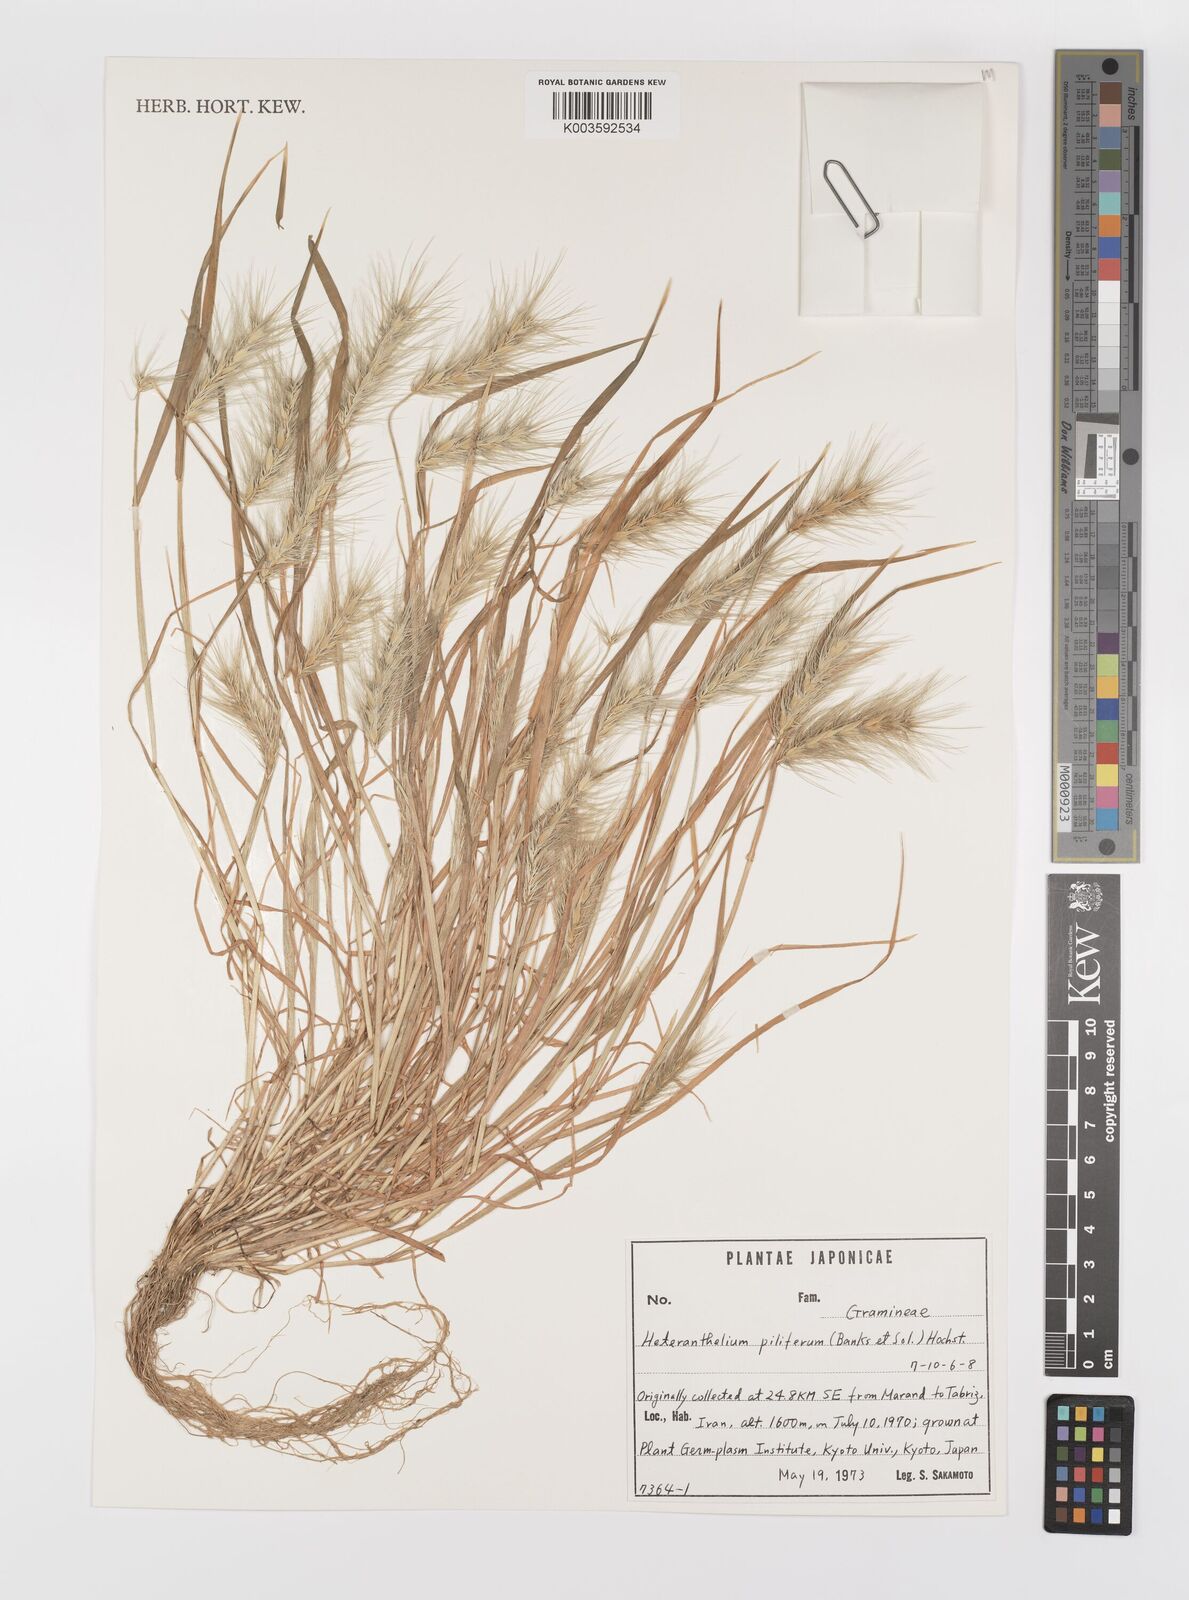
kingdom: Plantae
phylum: Tracheophyta
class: Liliopsida
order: Poales
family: Poaceae
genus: Heteranthelium
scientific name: Heteranthelium piliferum
